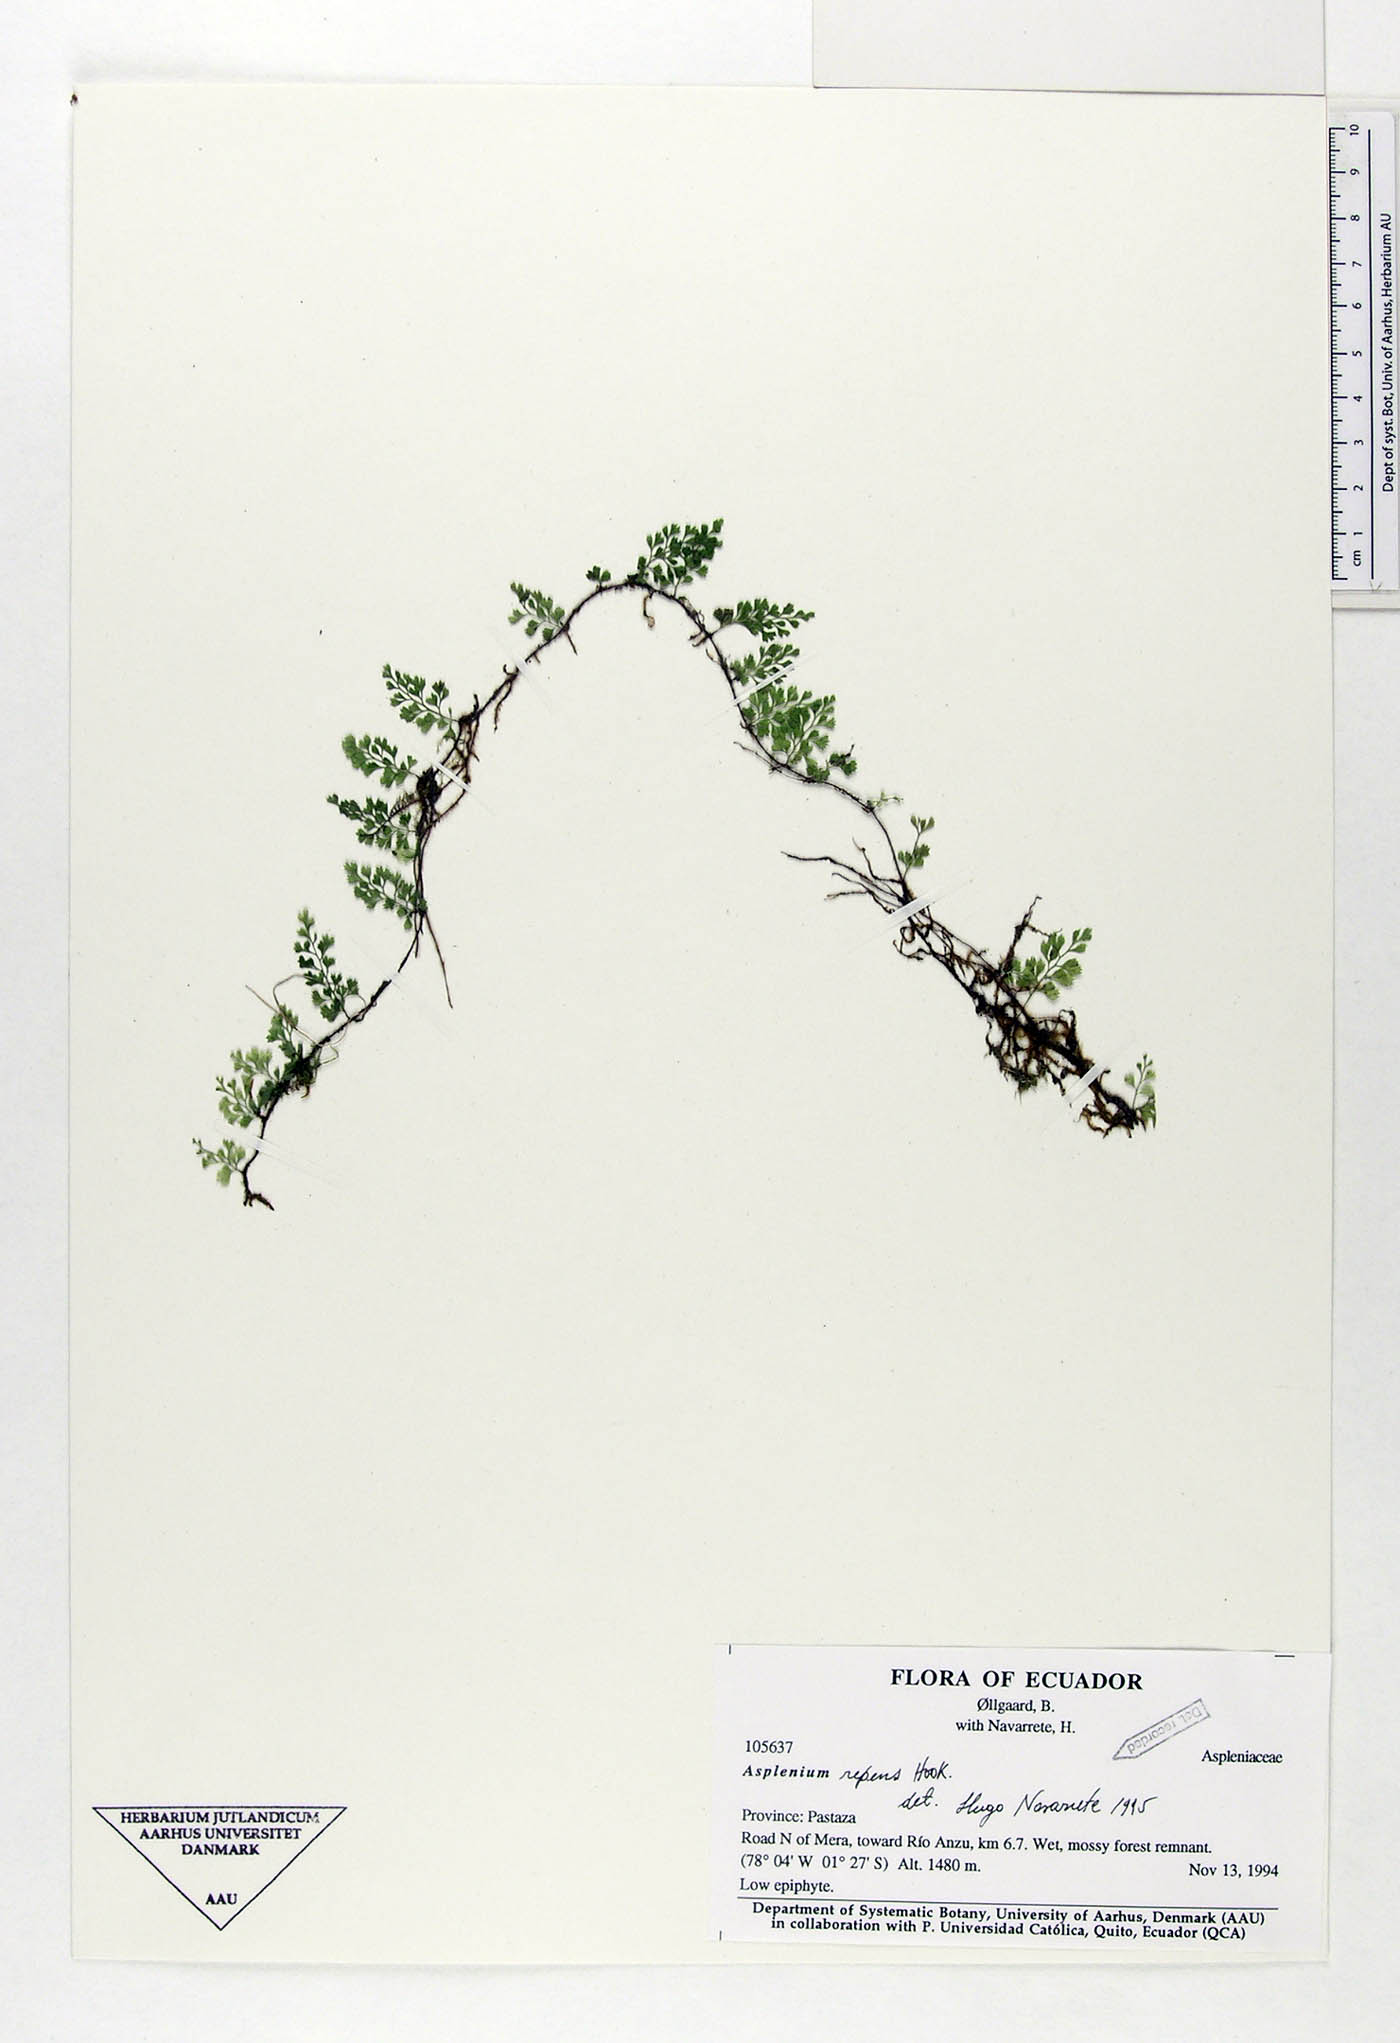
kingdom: Plantae
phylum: Tracheophyta
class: Polypodiopsida
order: Polypodiales
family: Aspleniaceae
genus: Asplenium
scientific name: Asplenium repens
